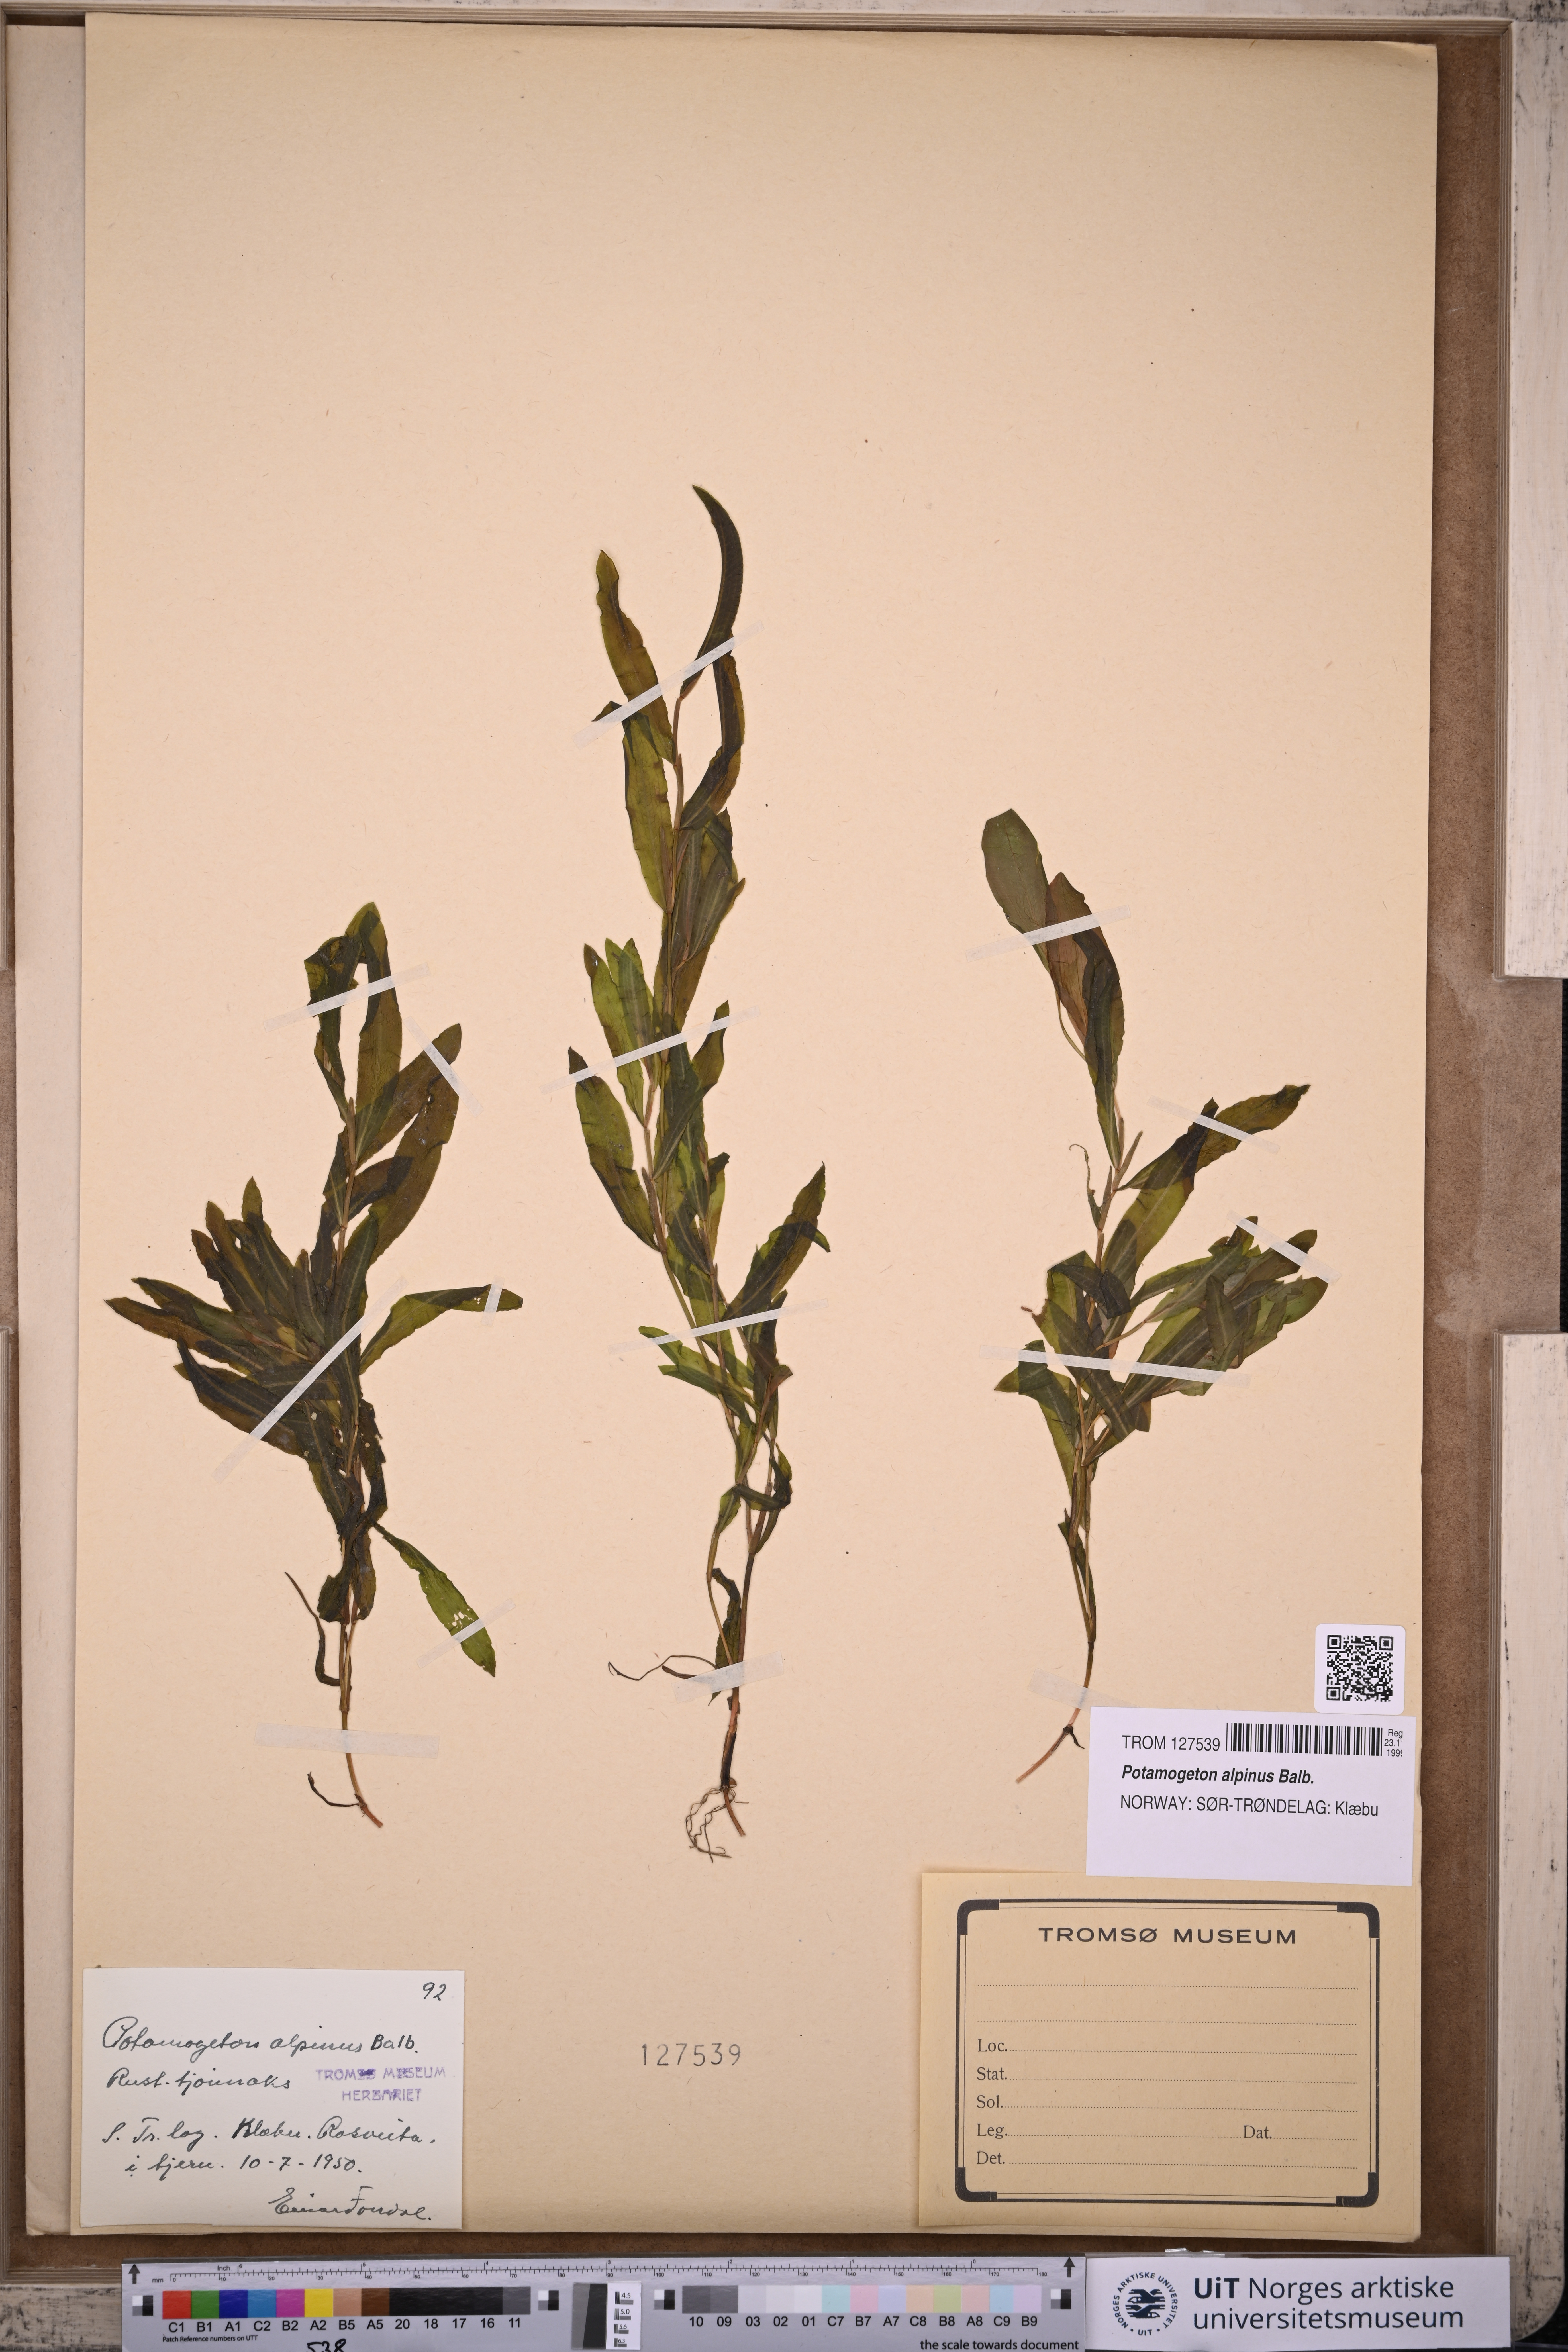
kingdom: Plantae
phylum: Tracheophyta
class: Liliopsida
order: Alismatales
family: Potamogetonaceae
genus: Potamogeton
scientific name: Potamogeton alpinus
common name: Red pondweed
